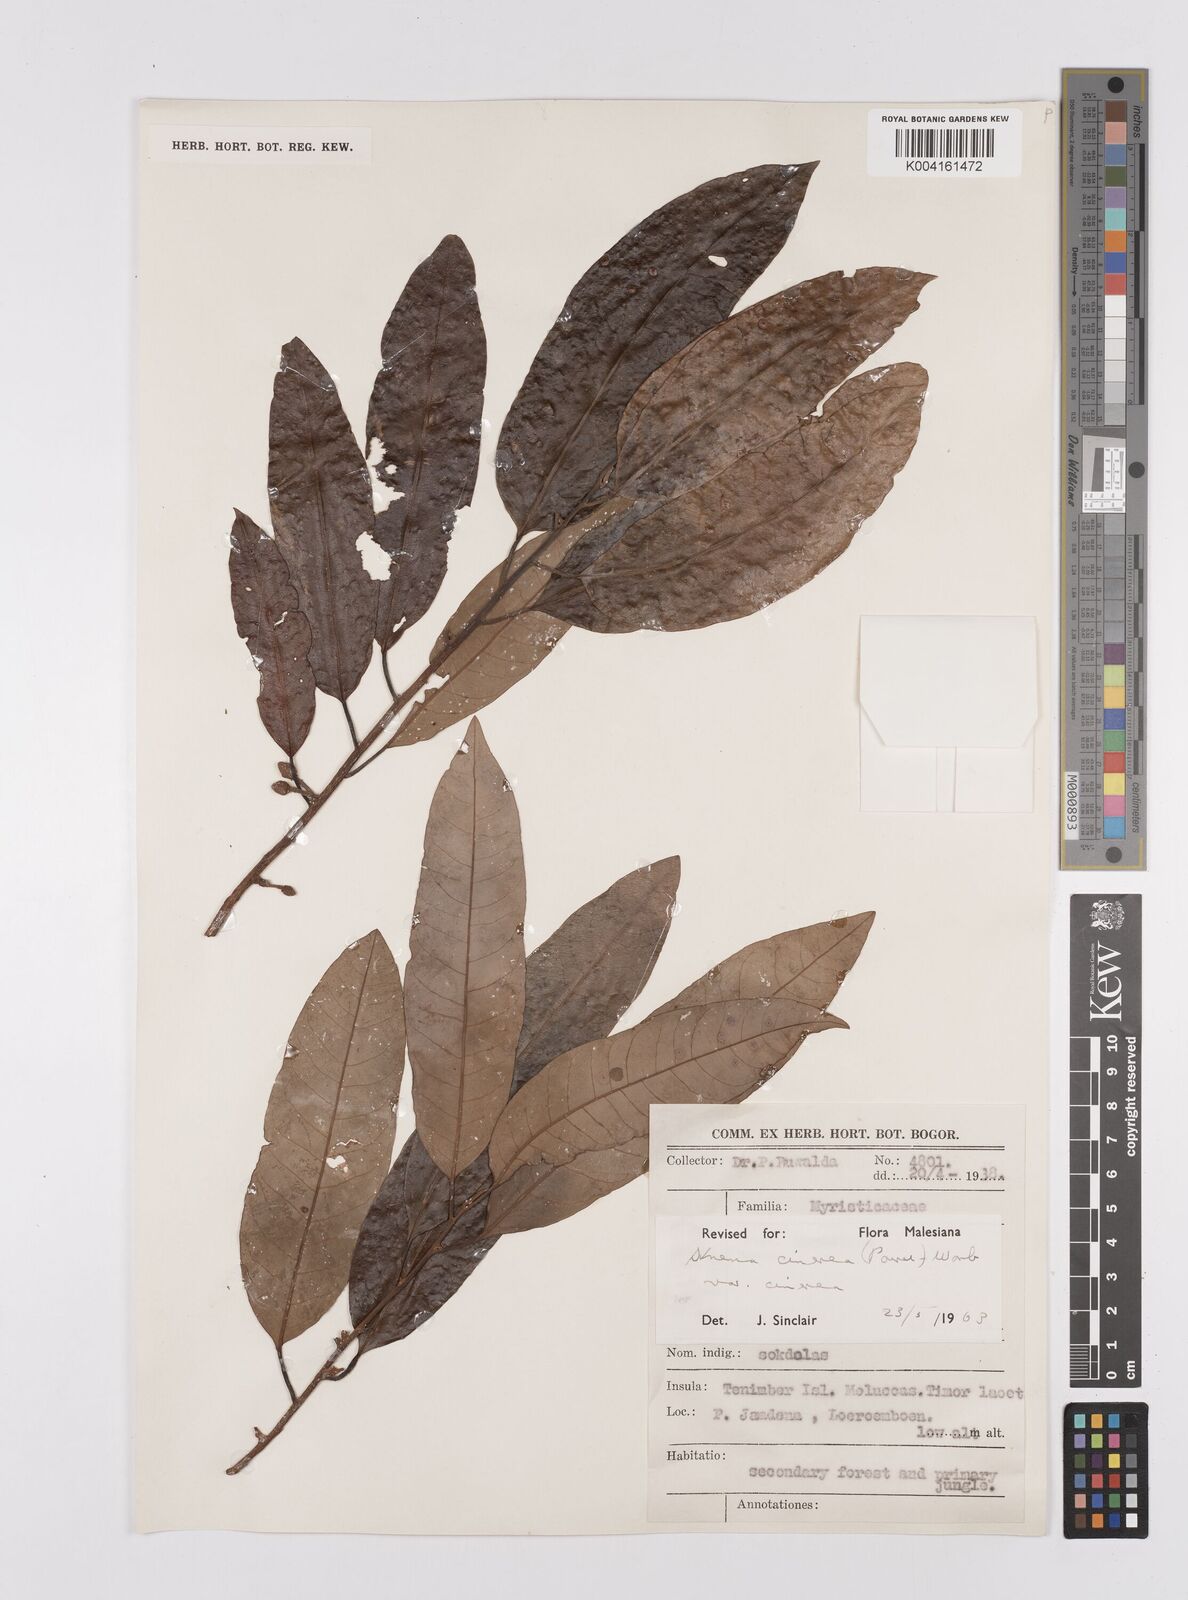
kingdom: Plantae
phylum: Tracheophyta
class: Magnoliopsida
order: Magnoliales
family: Myristicaceae
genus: Knema
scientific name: Knema cinerea
